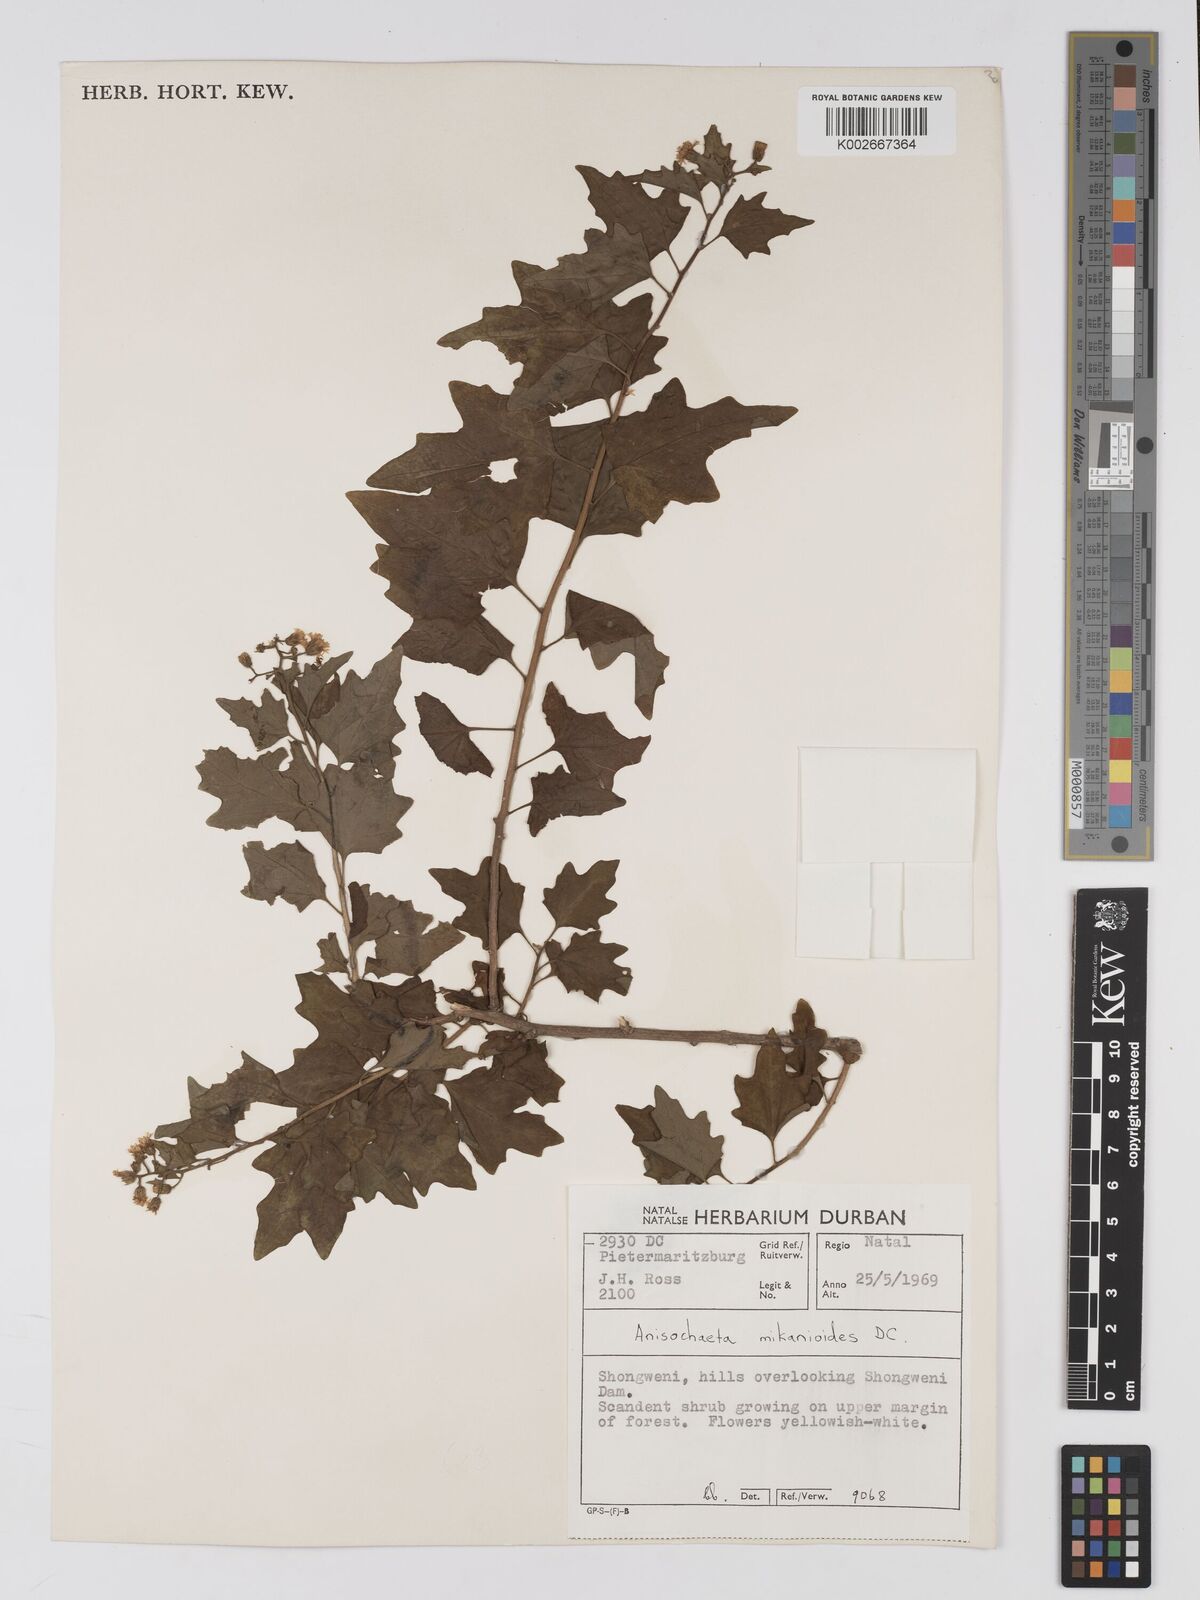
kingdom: Plantae
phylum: Tracheophyta
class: Magnoliopsida
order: Asterales
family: Asteraceae
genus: Anisochaeta
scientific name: Anisochaeta mikanioides
